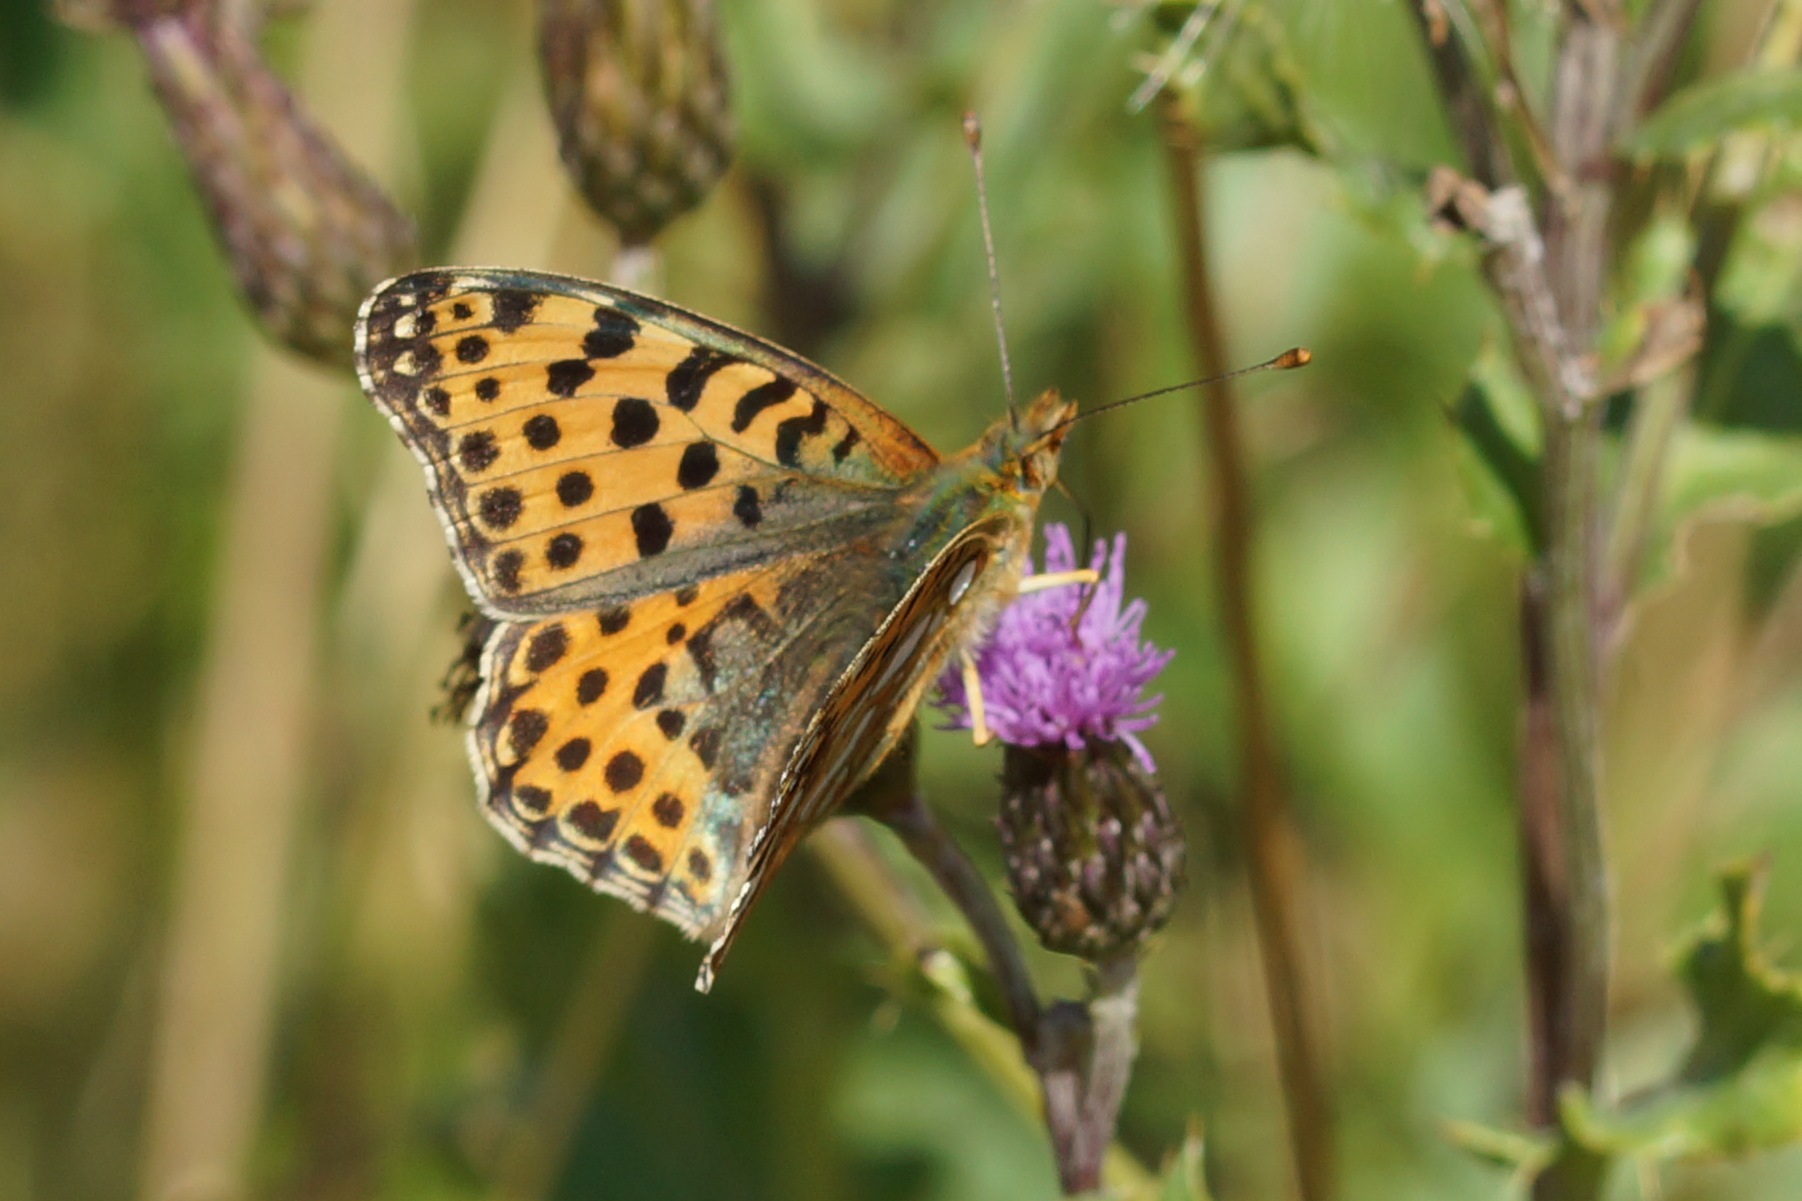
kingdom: Animalia
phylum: Arthropoda
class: Insecta
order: Lepidoptera
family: Nymphalidae
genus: Issoria
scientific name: Issoria lathonia
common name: Storplettet perlemorsommerfugl
